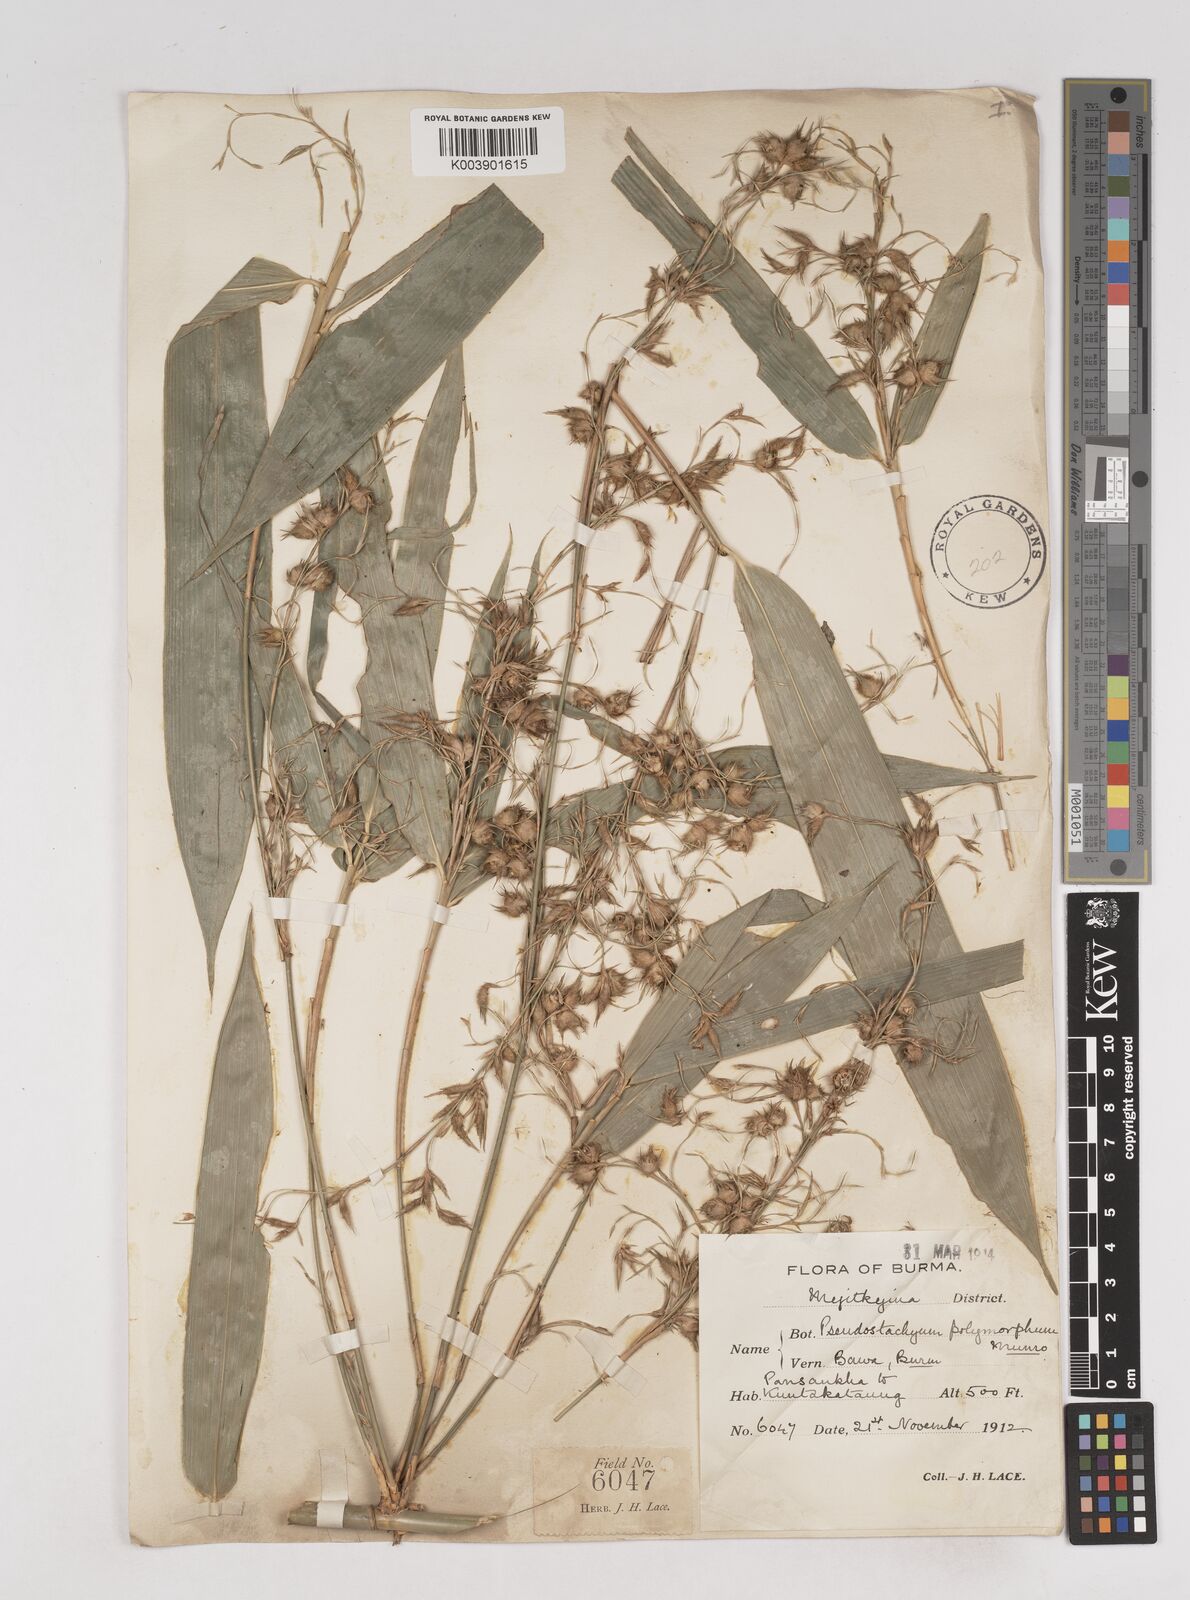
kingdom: Plantae
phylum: Tracheophyta
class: Liliopsida
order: Poales
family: Poaceae
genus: Pseudostachyum
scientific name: Pseudostachyum polymorphum
